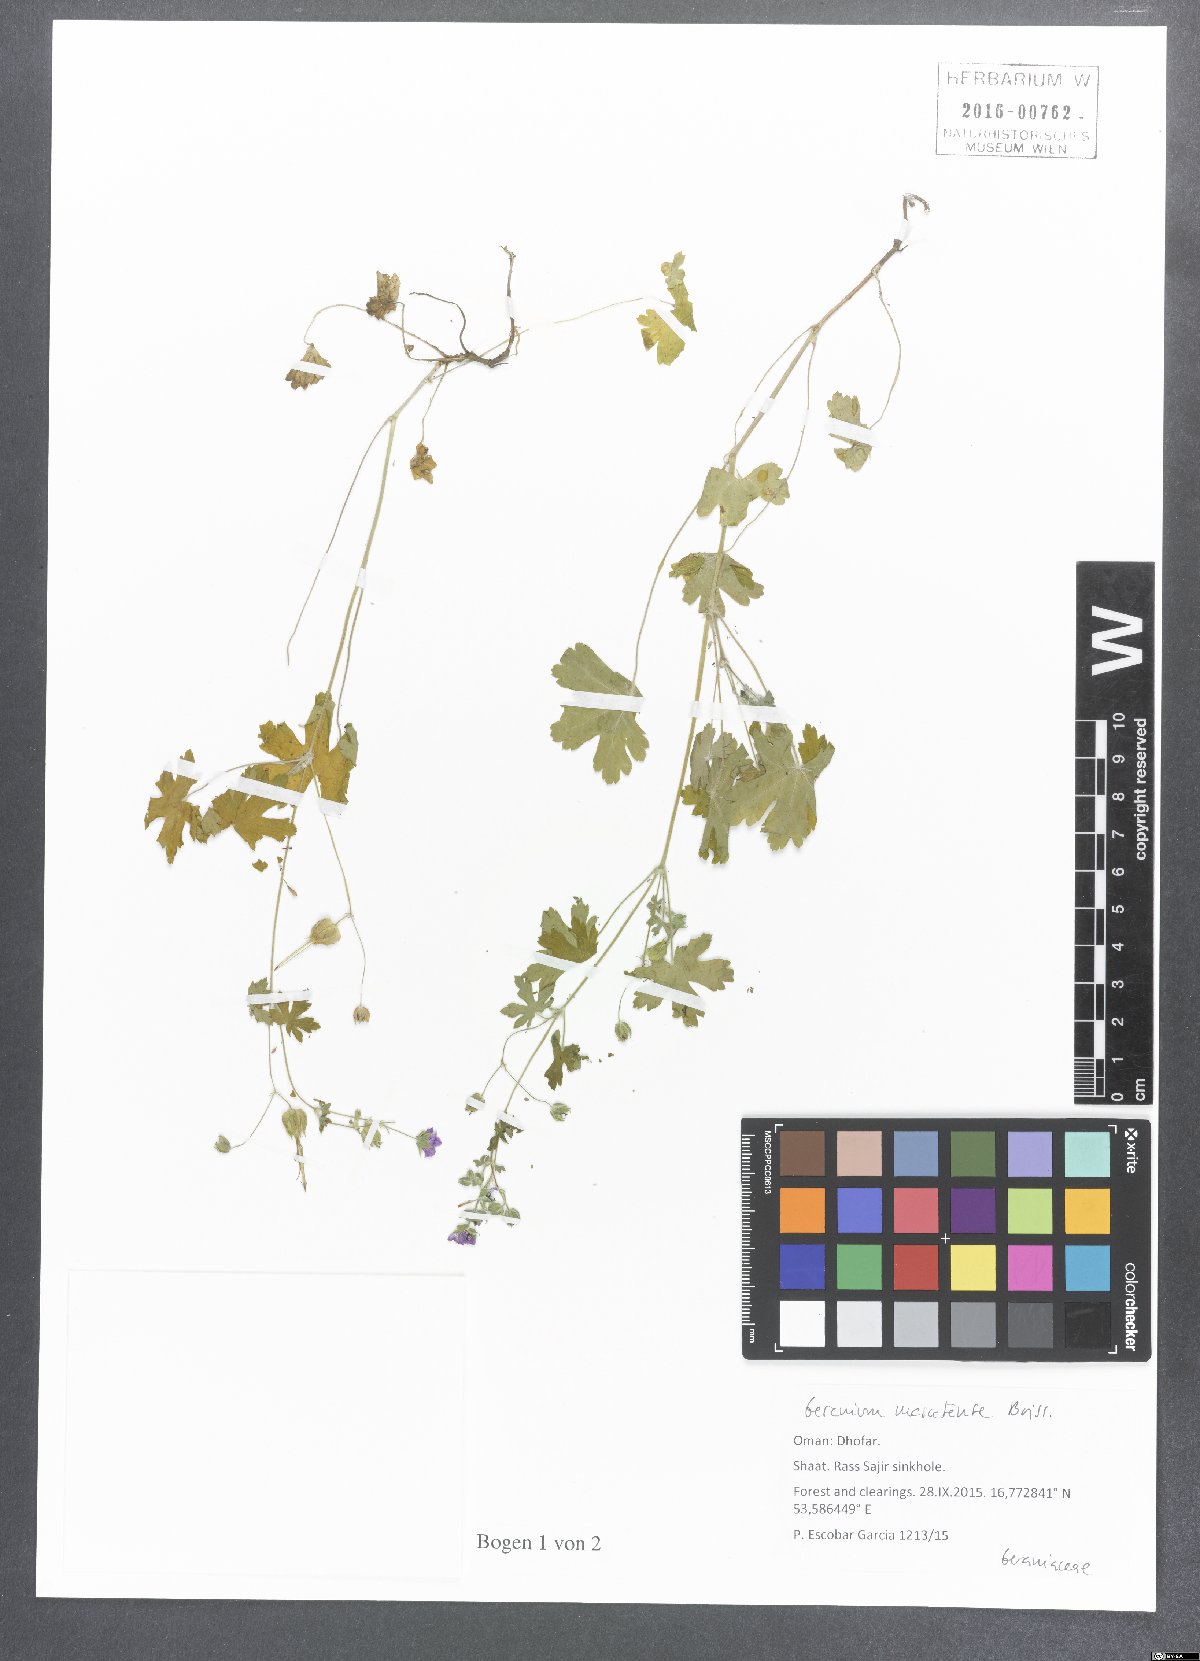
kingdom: Plantae
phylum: Tracheophyta
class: Magnoliopsida
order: Geraniales
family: Geraniaceae
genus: Geranium
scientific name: Geranium mascatense
